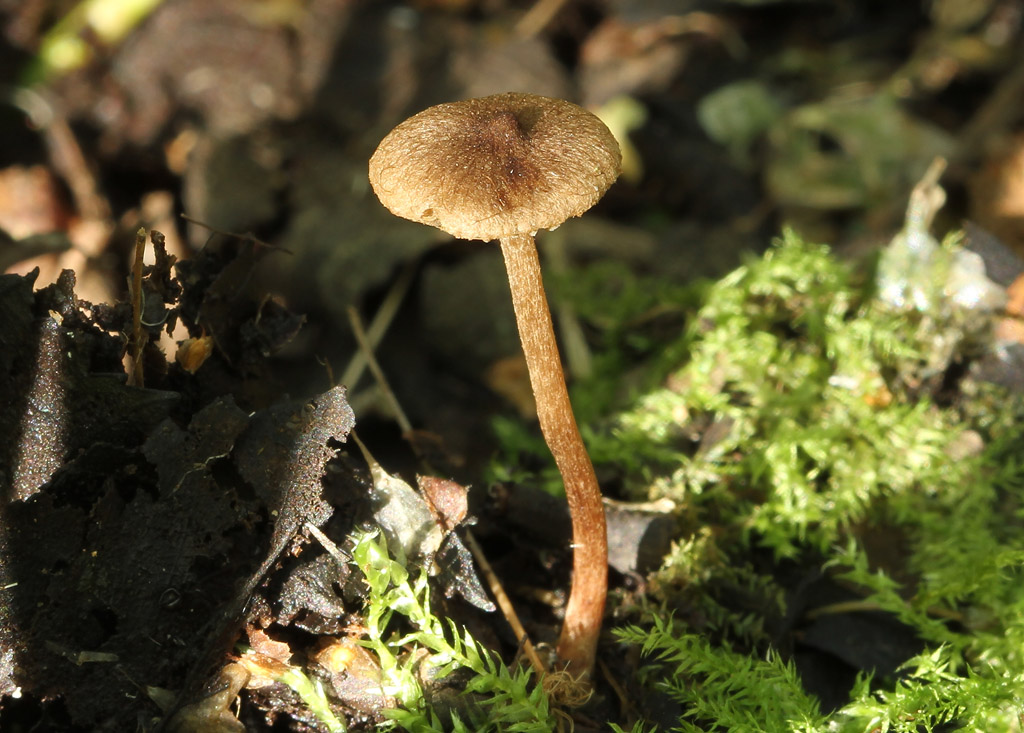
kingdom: Fungi
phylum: Basidiomycota
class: Agaricomycetes
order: Agaricales
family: Inocybaceae
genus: Inocybe
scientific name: Inocybe lacera
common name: laset trævlhat
